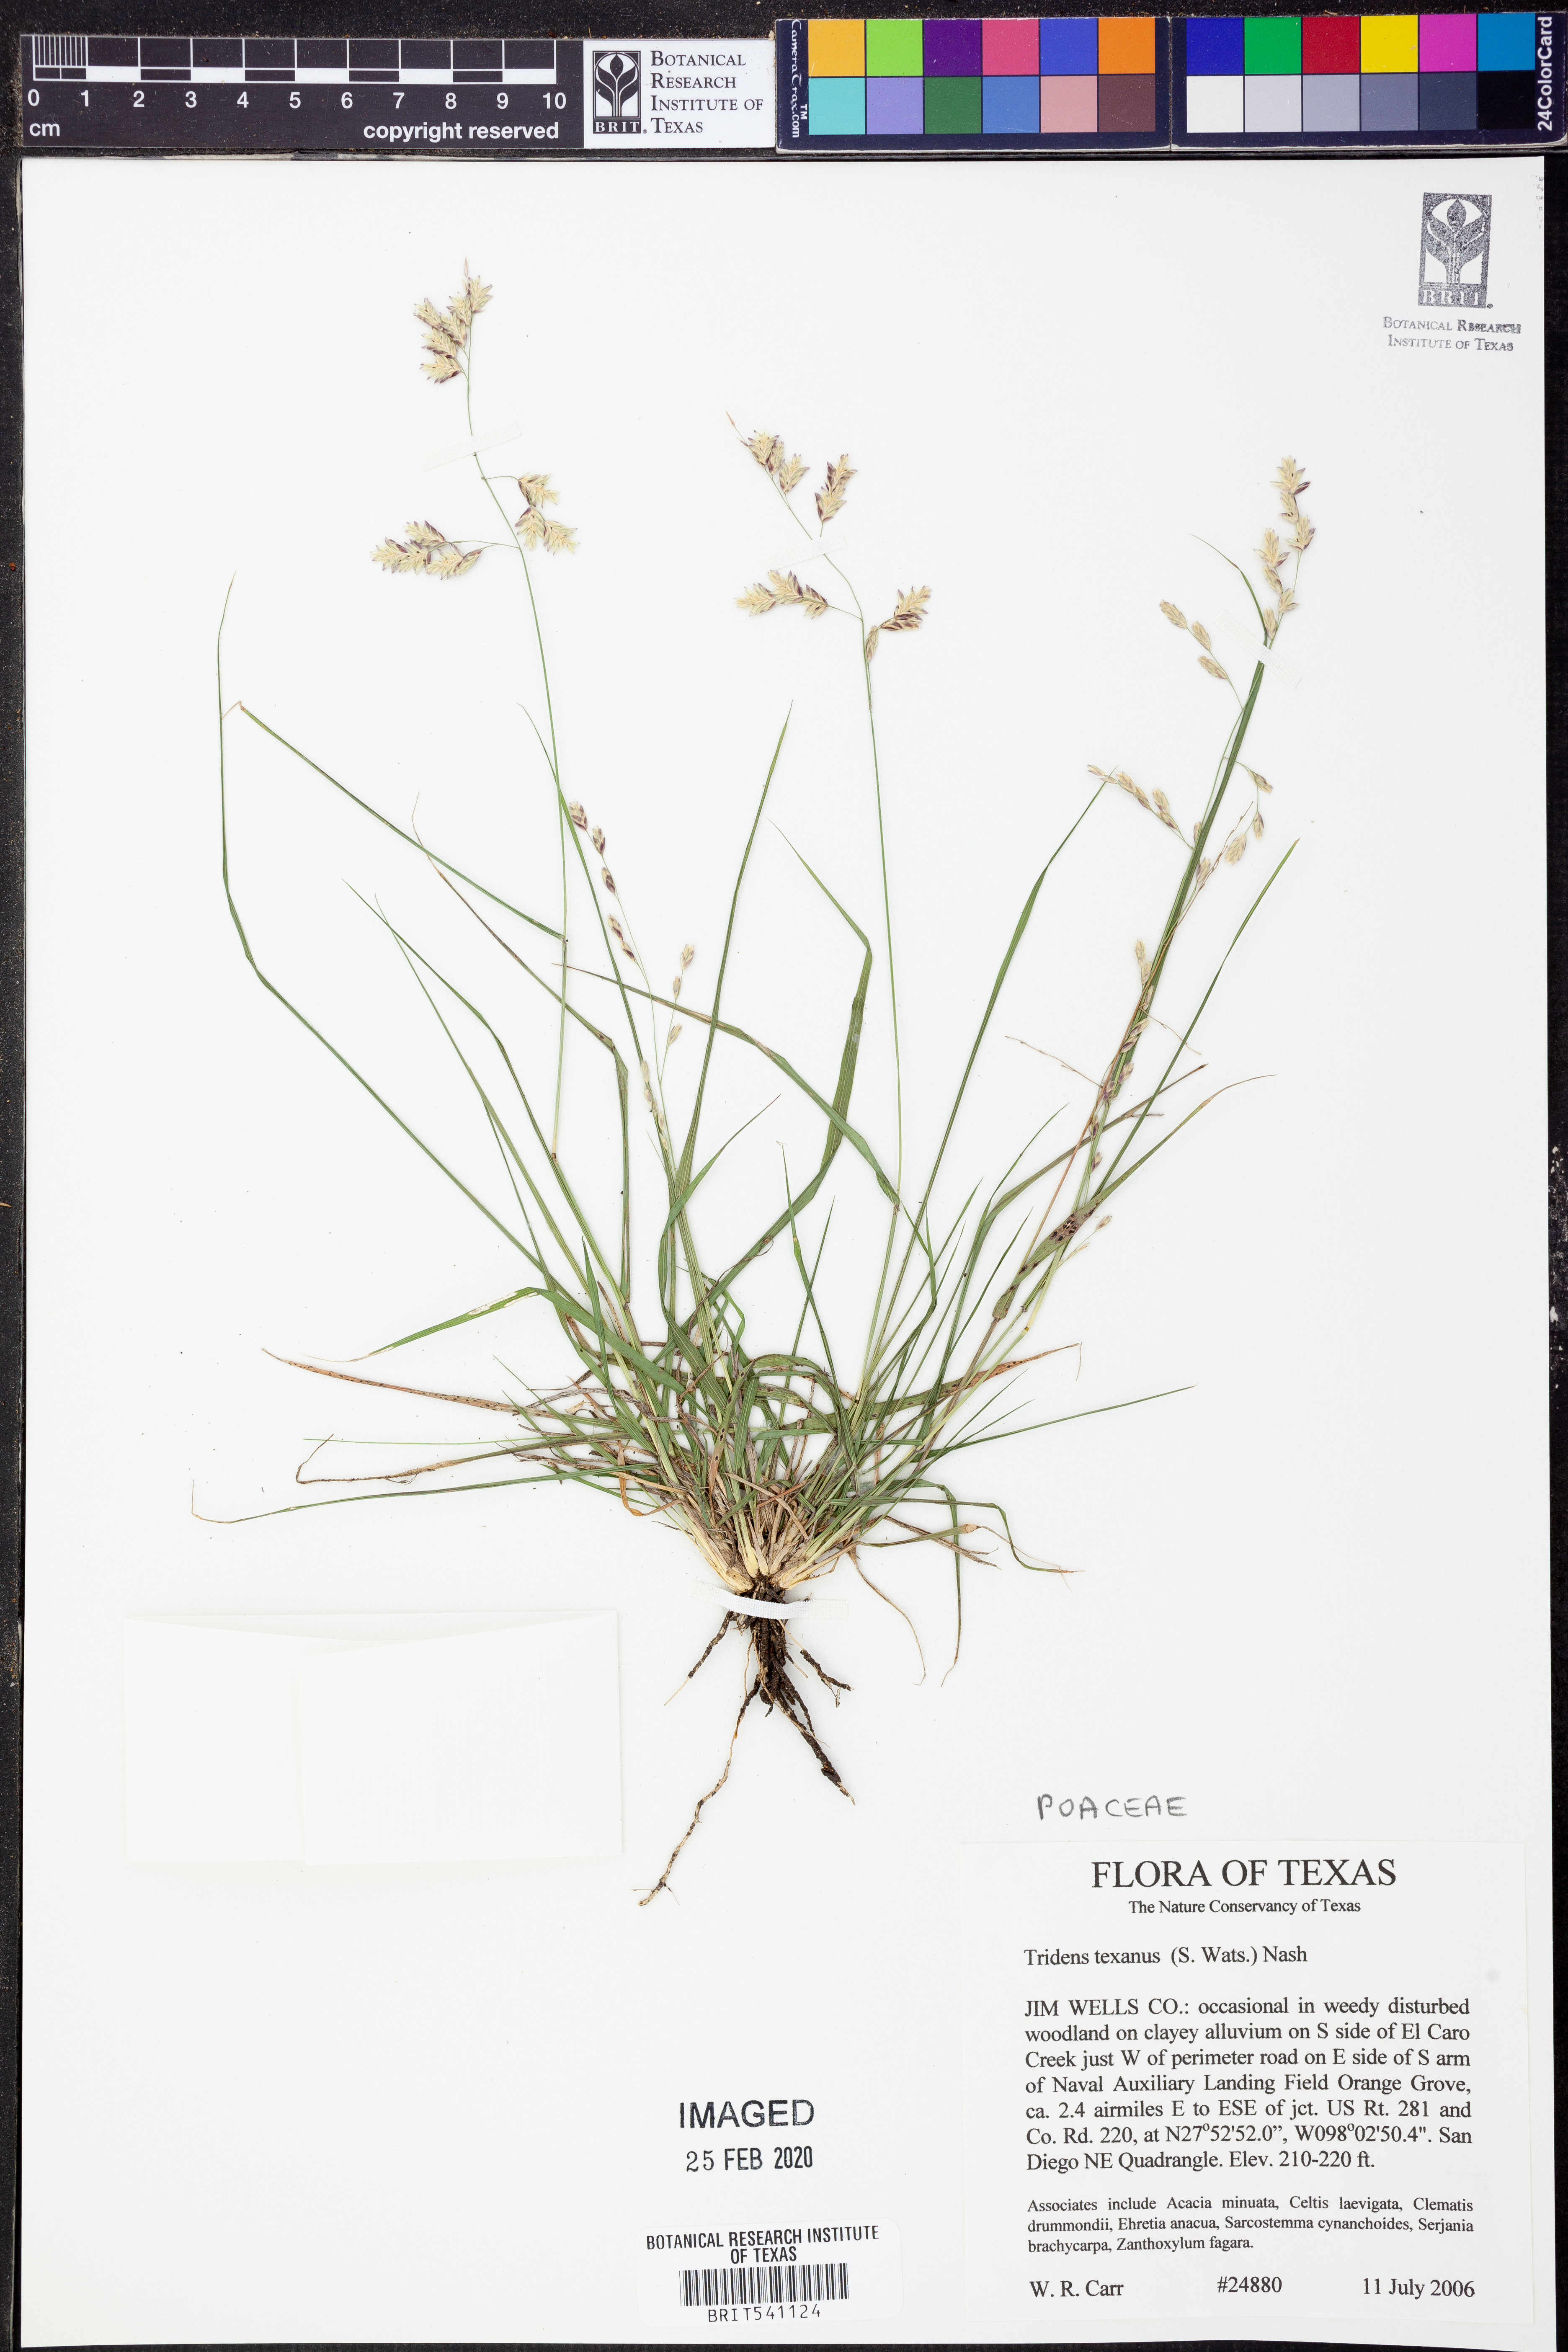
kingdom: Plantae
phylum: Tracheophyta
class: Liliopsida
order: Poales
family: Poaceae
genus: Tridens
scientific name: Tridens texanus
